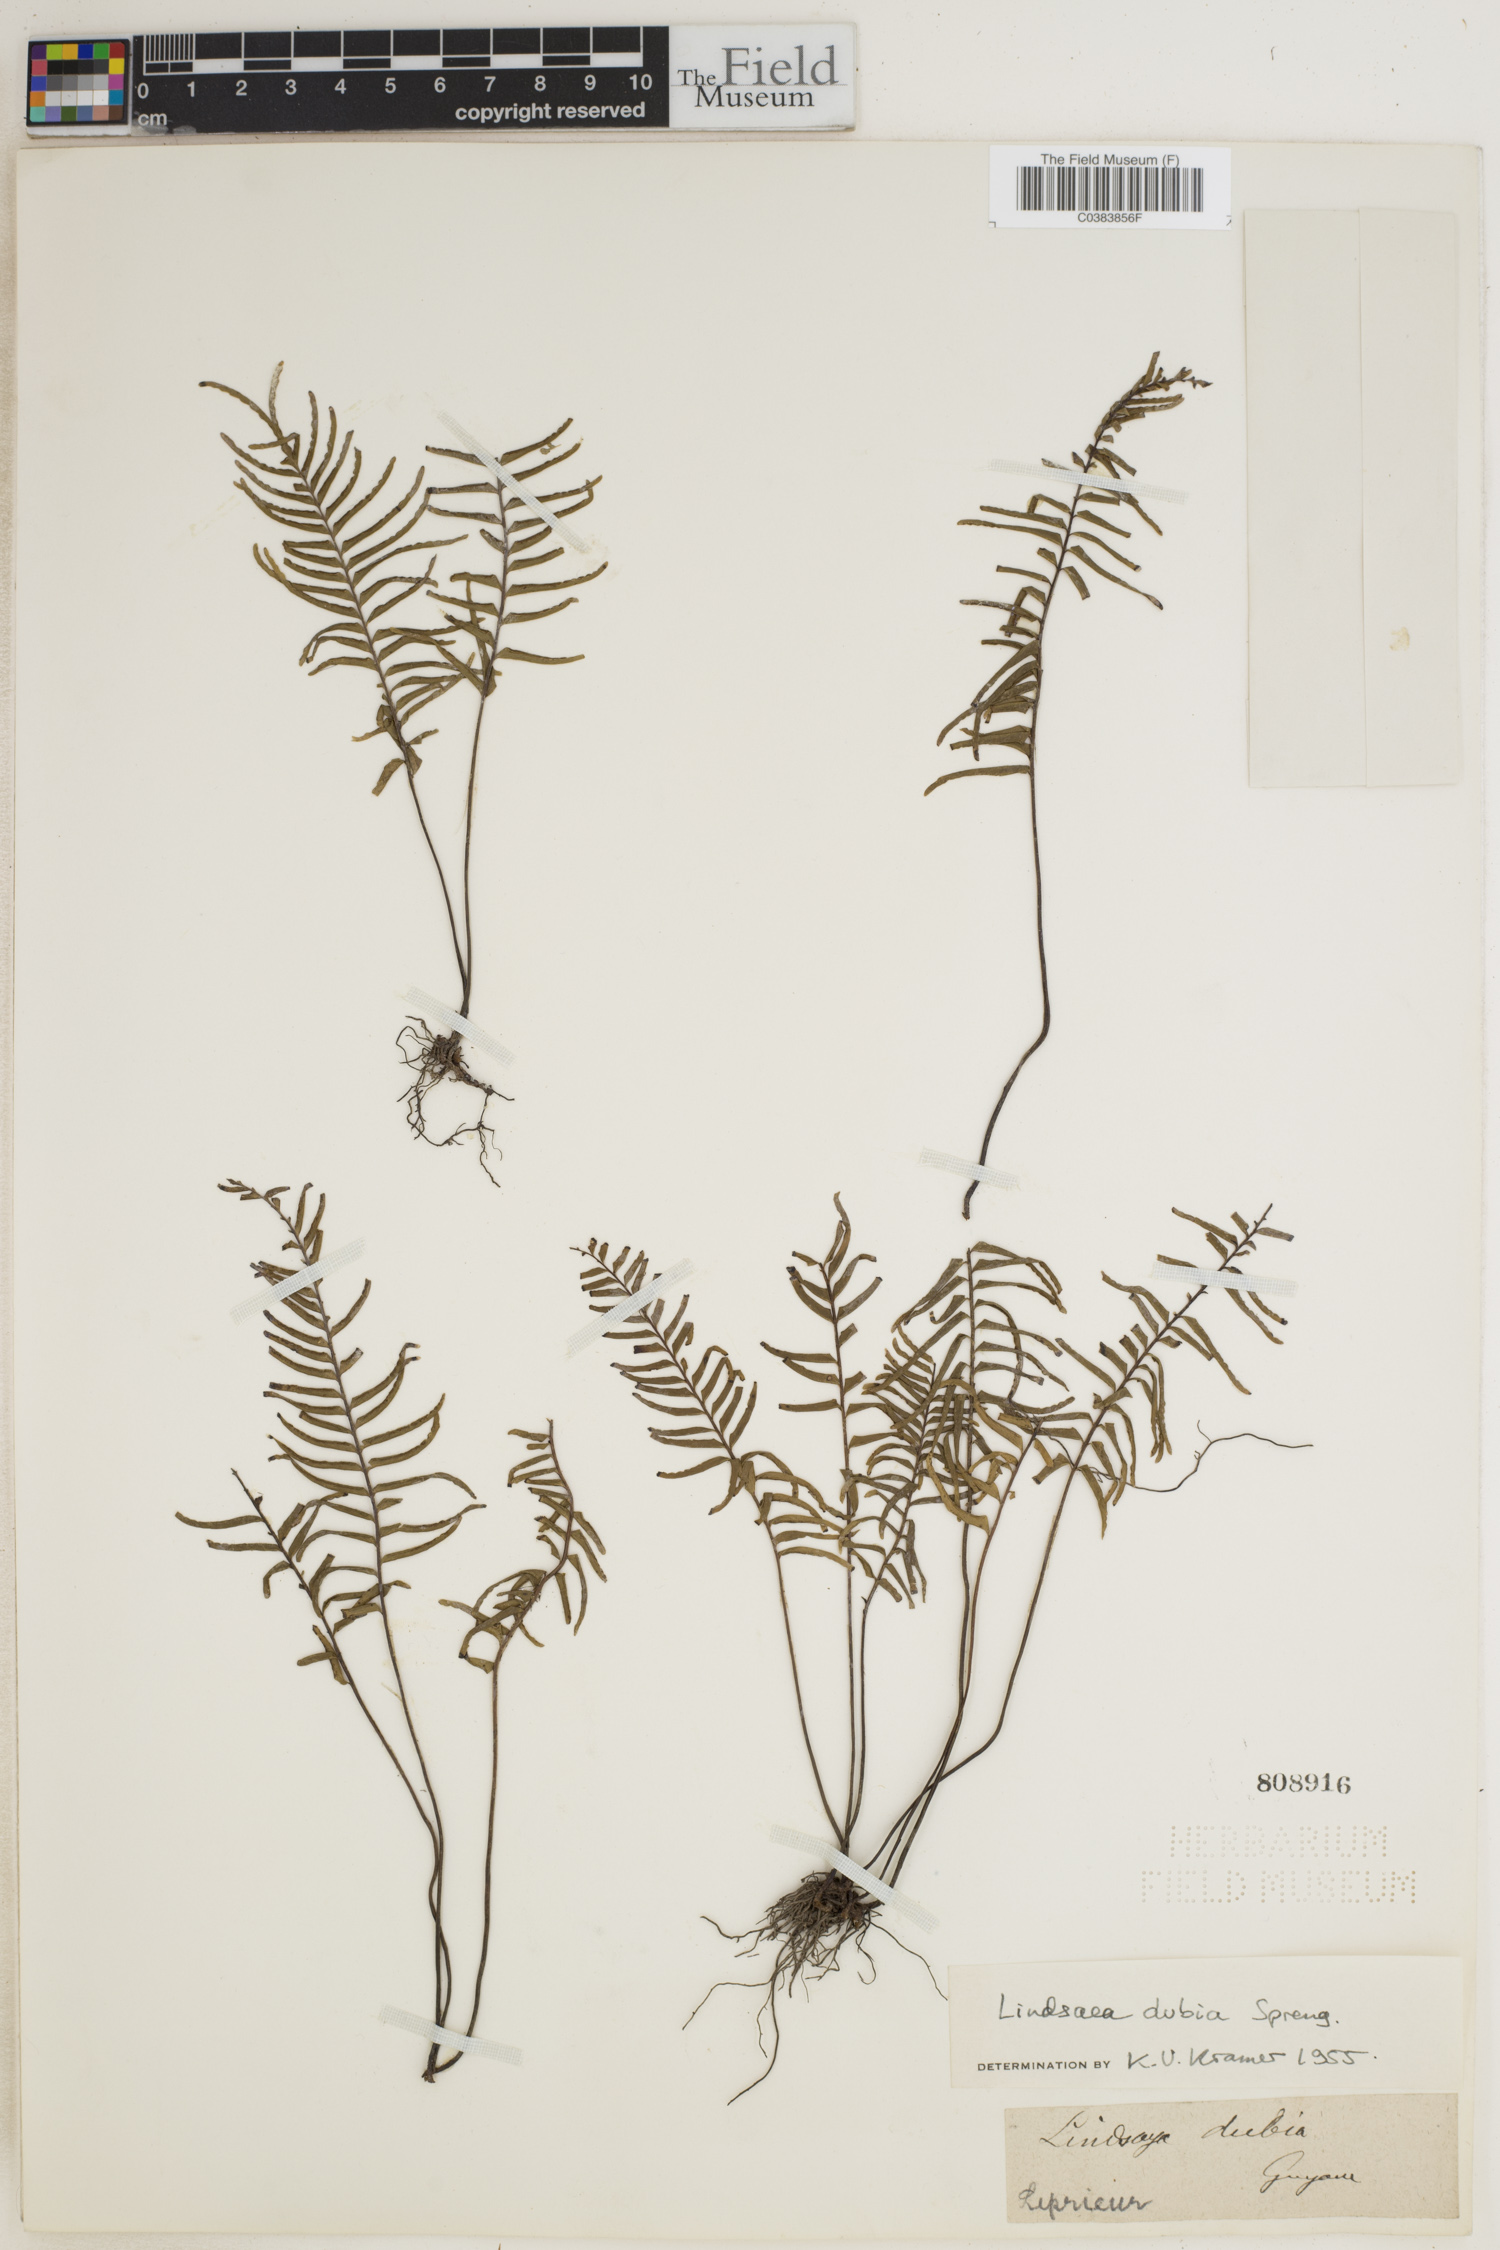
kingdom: Plantae
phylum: Tracheophyta
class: Polypodiopsida
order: Polypodiales
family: Lindsaeaceae
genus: Lindsaea
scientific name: Lindsaea dubia
